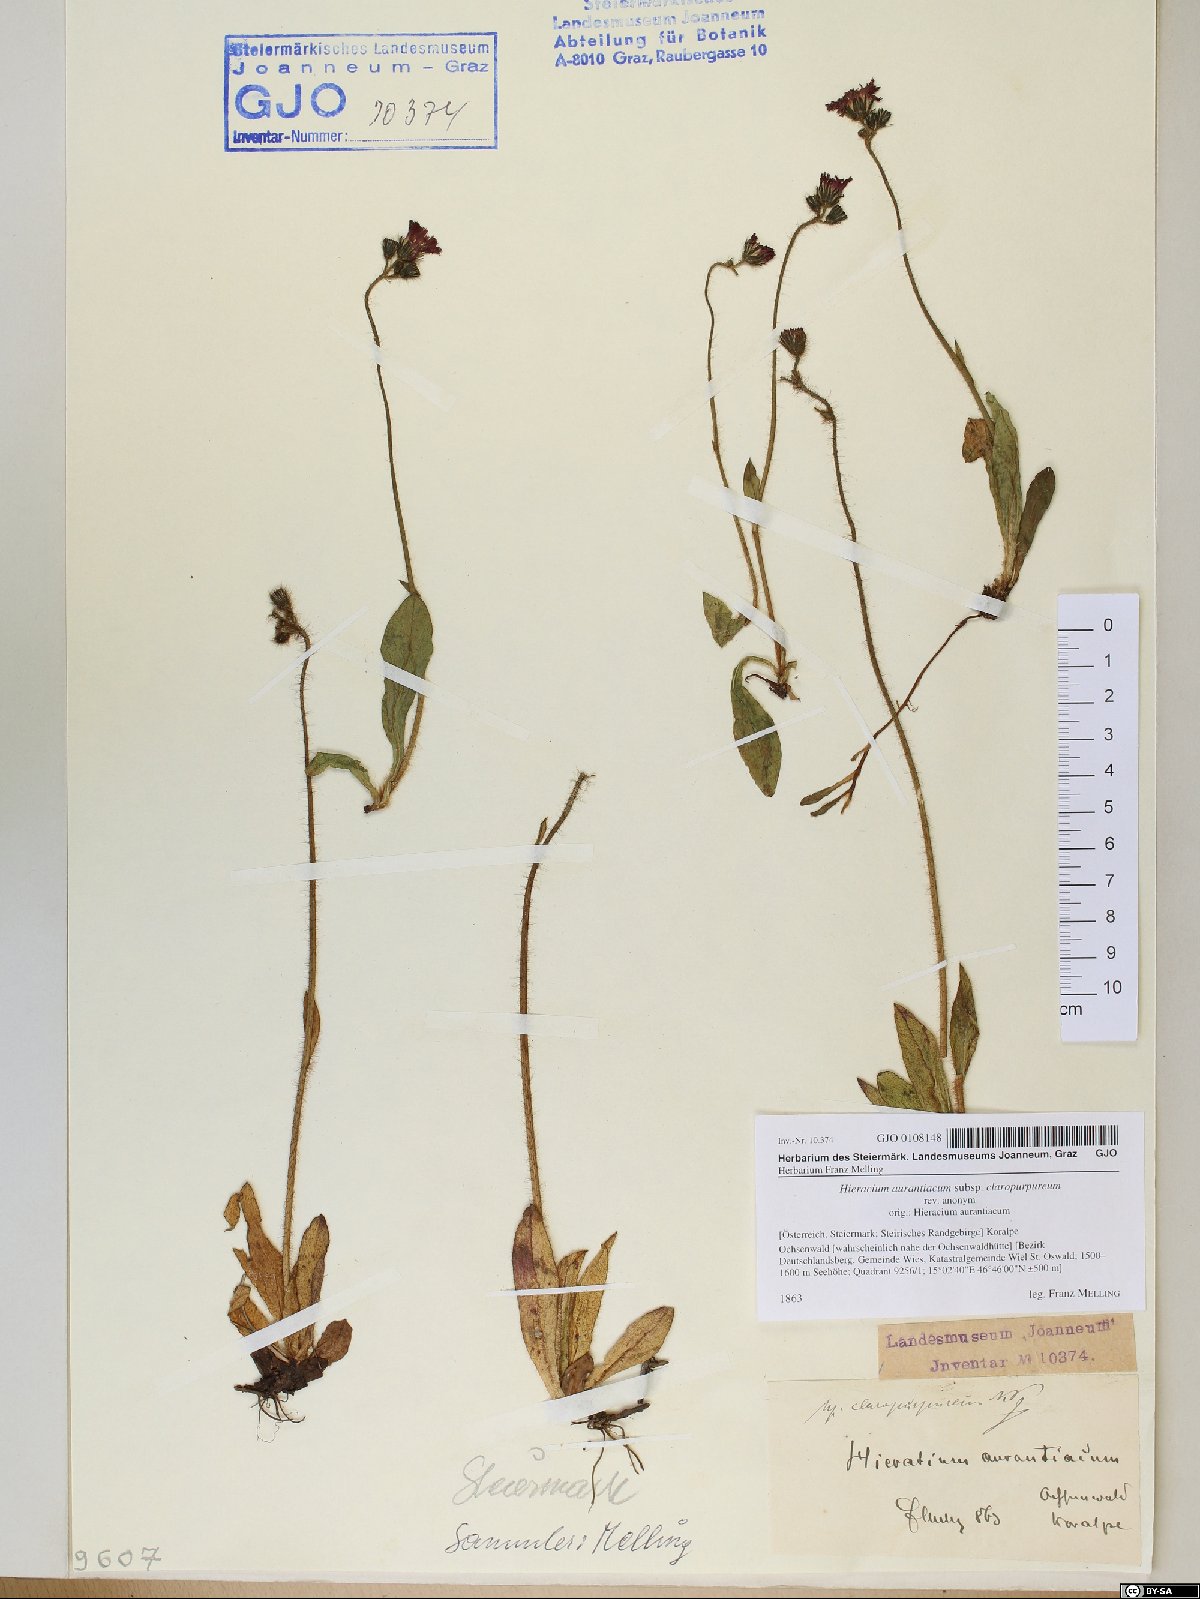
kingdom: Plantae
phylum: Tracheophyta
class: Magnoliopsida
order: Asterales
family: Asteraceae
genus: Pilosella
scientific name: Pilosella aurantiaca
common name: Fox-and-cubs
